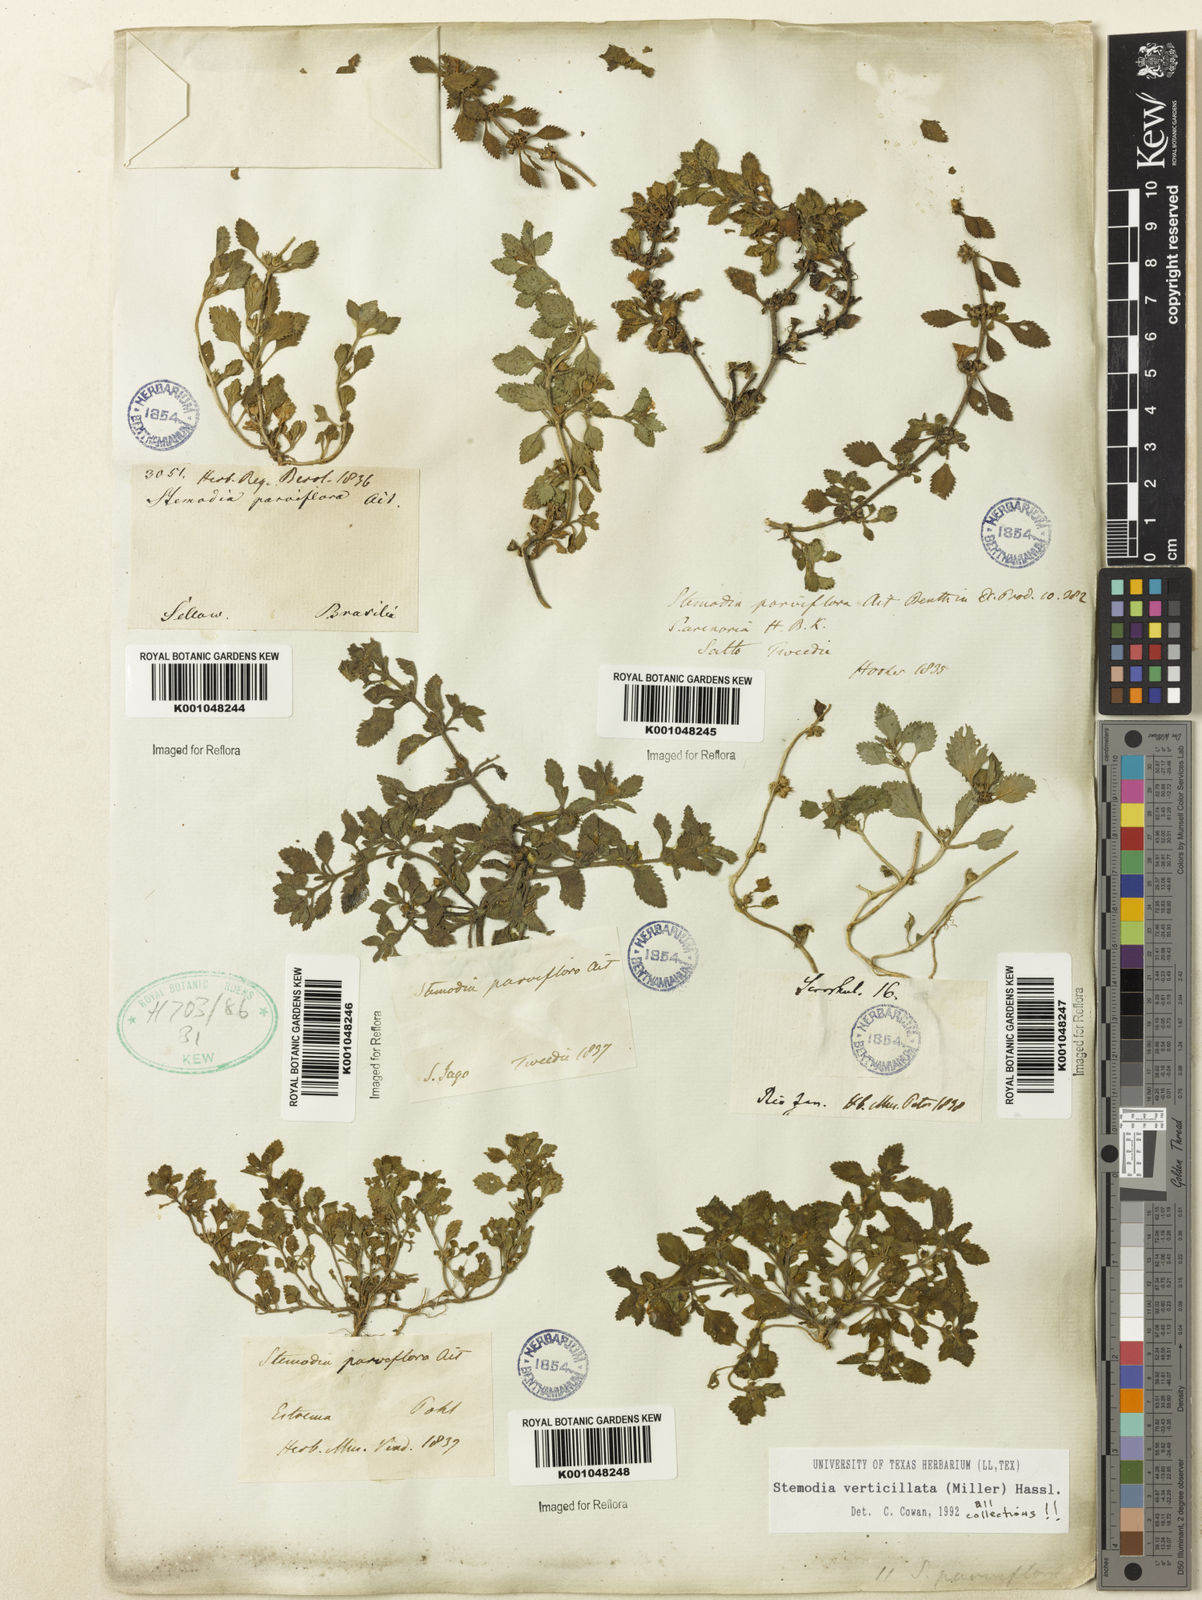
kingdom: Plantae
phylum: Tracheophyta
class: Magnoliopsida
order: Lamiales
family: Plantaginaceae
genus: Stemodia
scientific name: Stemodia verticillata
